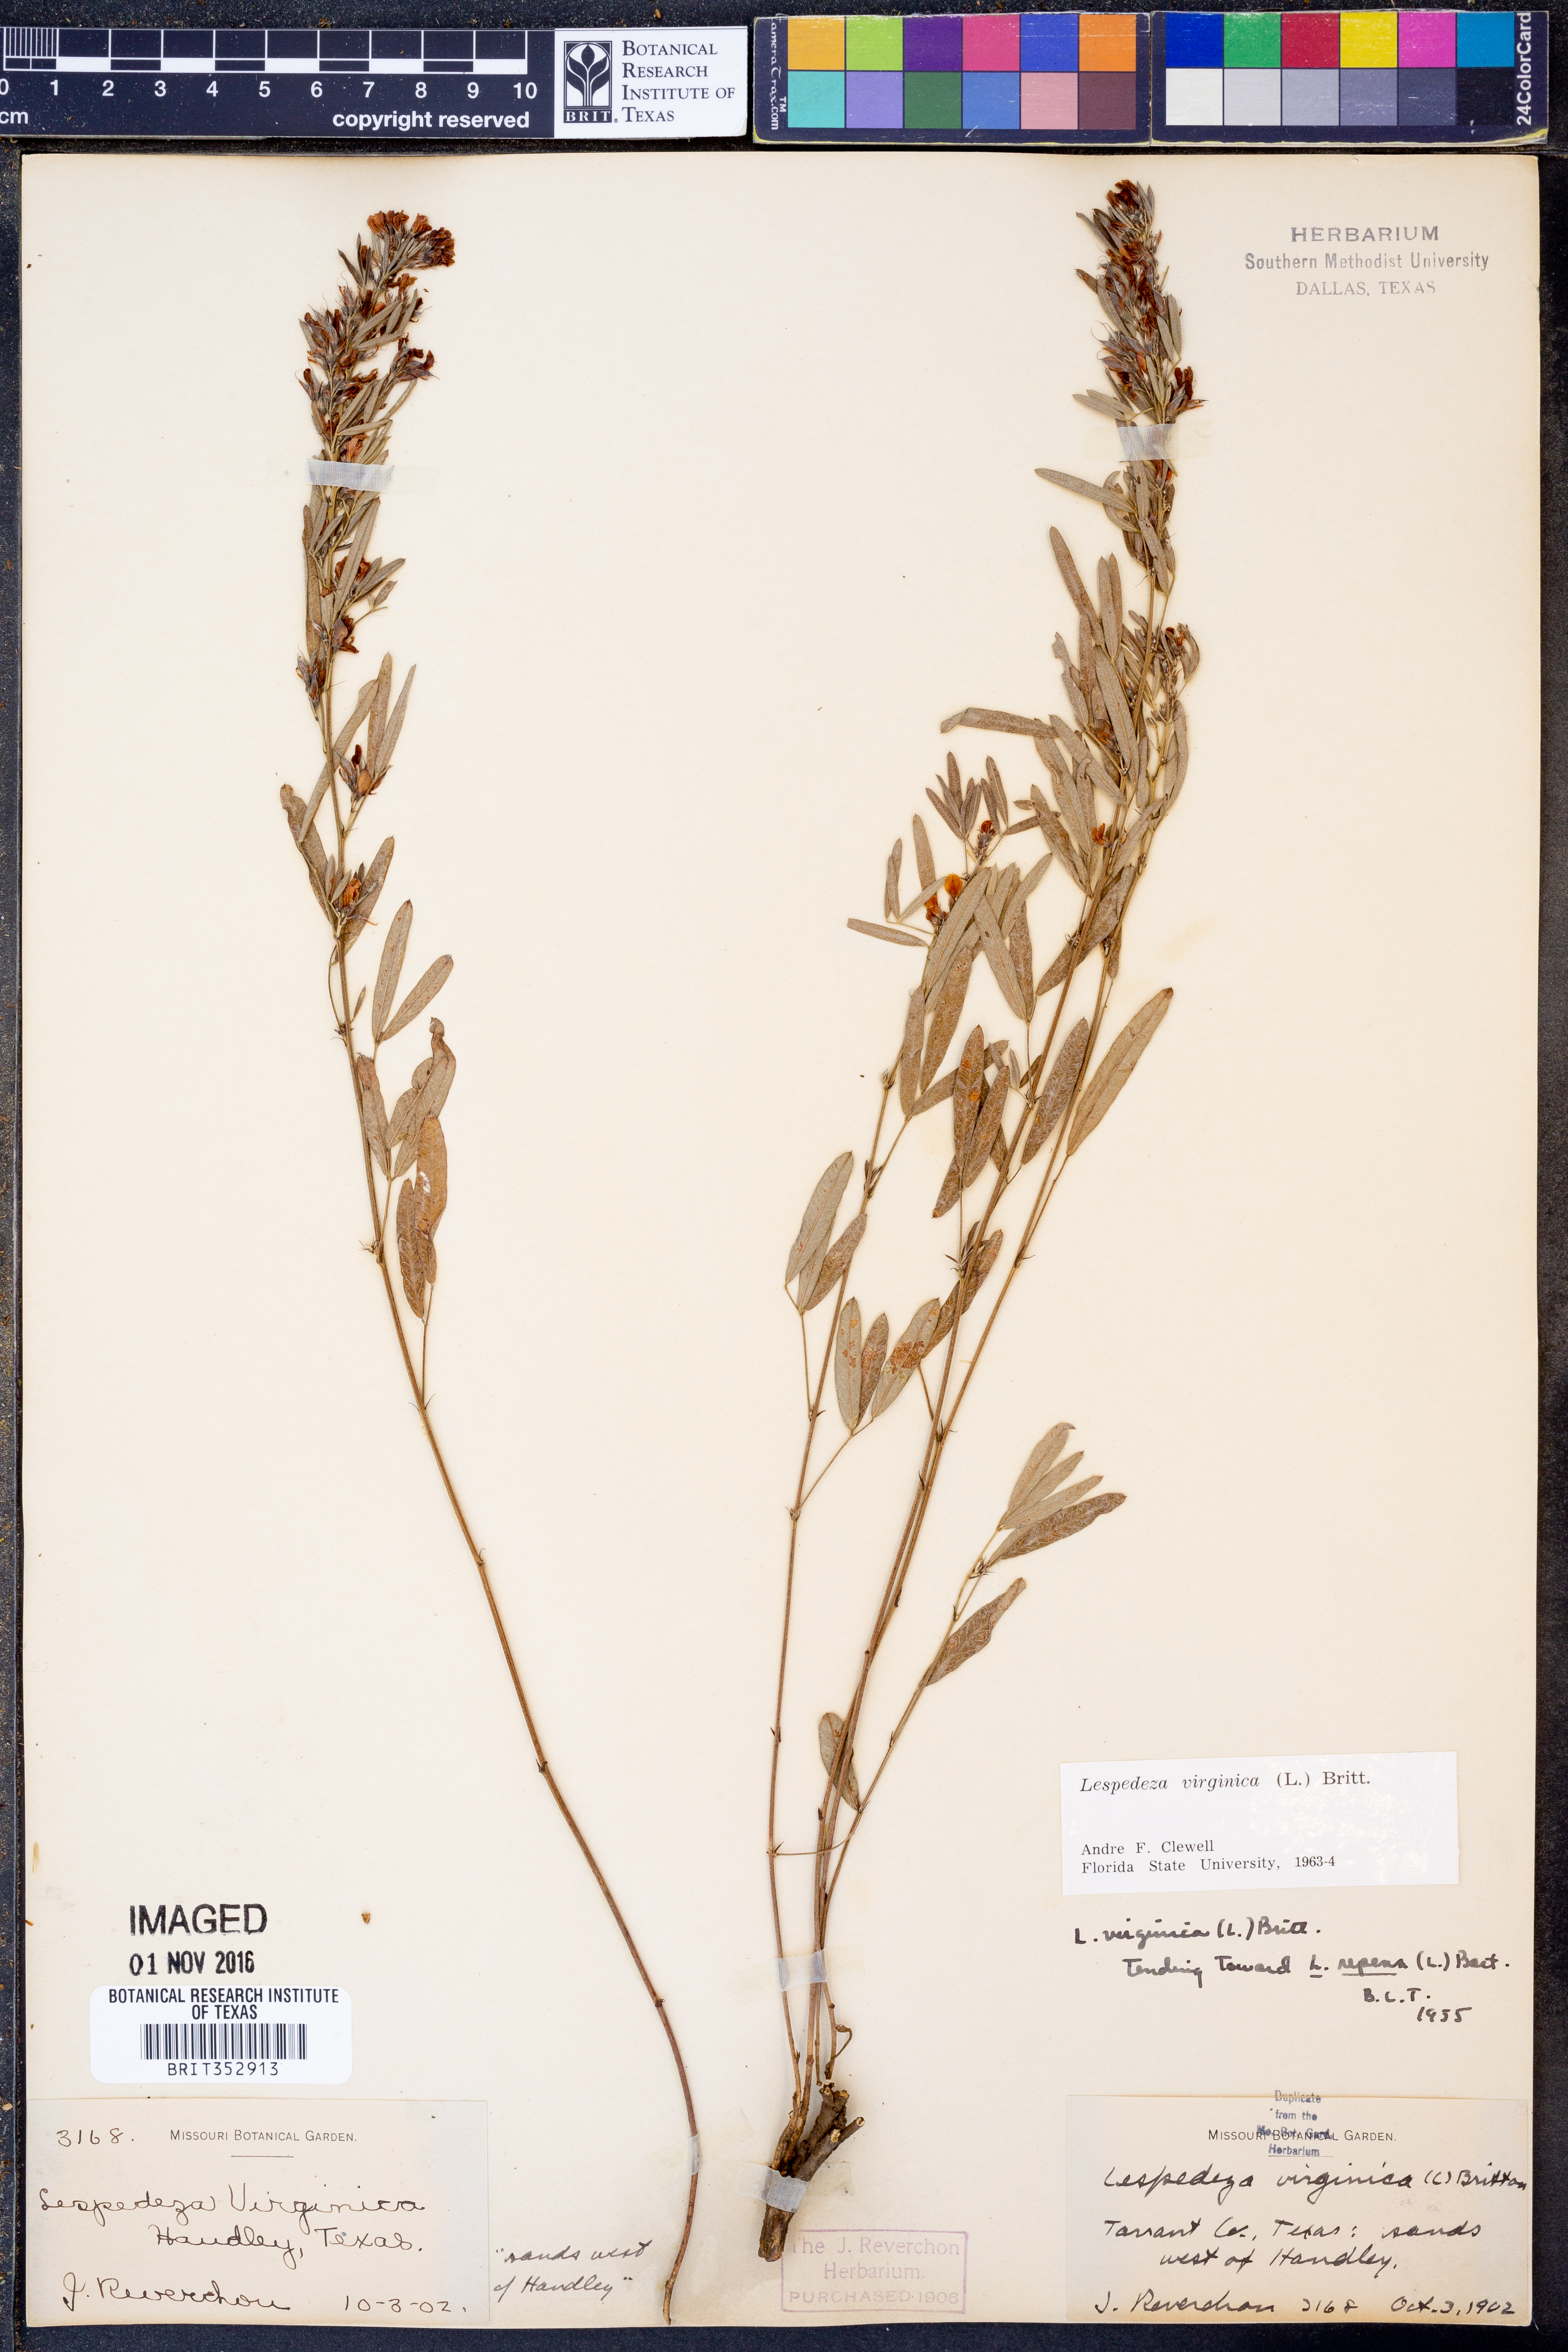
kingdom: Plantae
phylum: Tracheophyta
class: Magnoliopsida
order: Fabales
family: Fabaceae
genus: Lespedeza
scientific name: Lespedeza virginica
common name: Slender bush-clover
